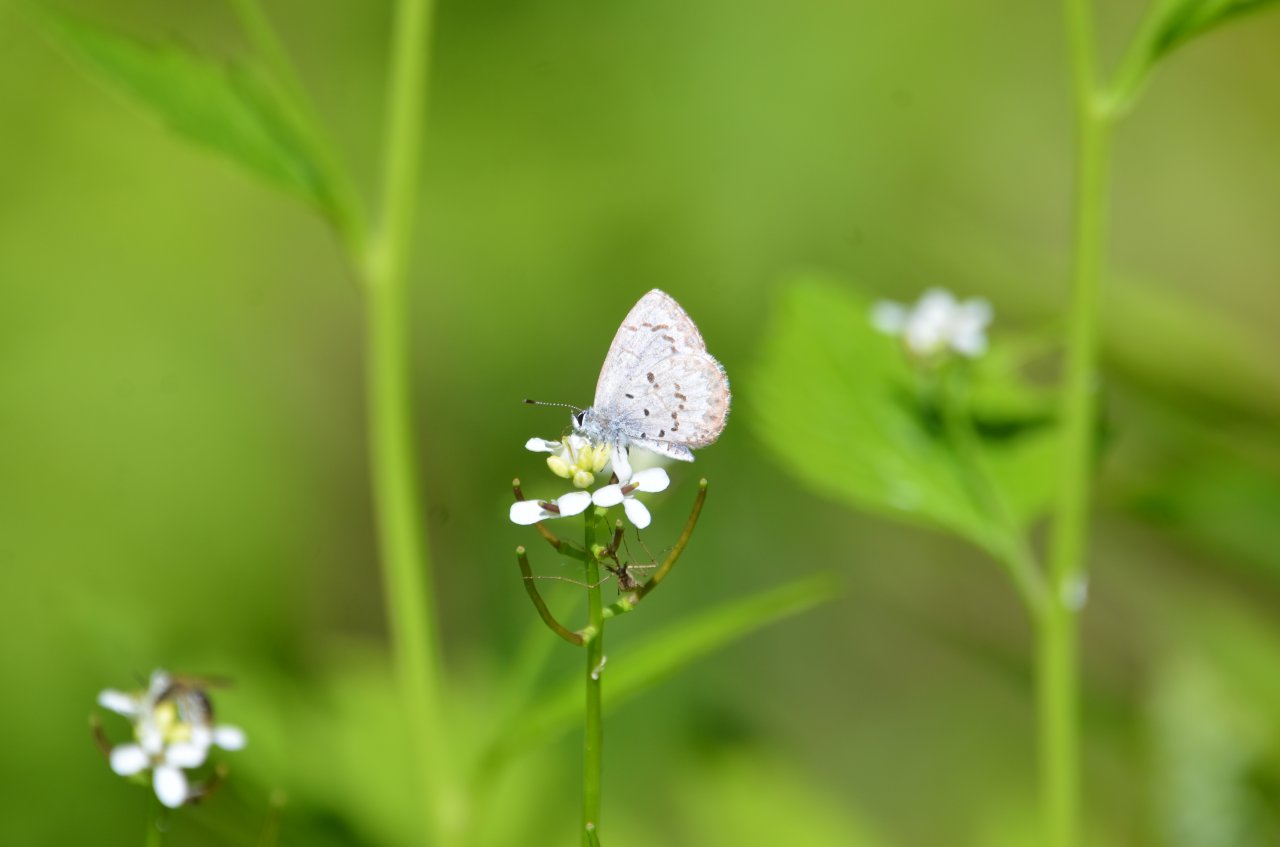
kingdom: Animalia
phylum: Arthropoda
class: Insecta
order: Lepidoptera
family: Lycaenidae
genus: Celastrina
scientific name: Celastrina
